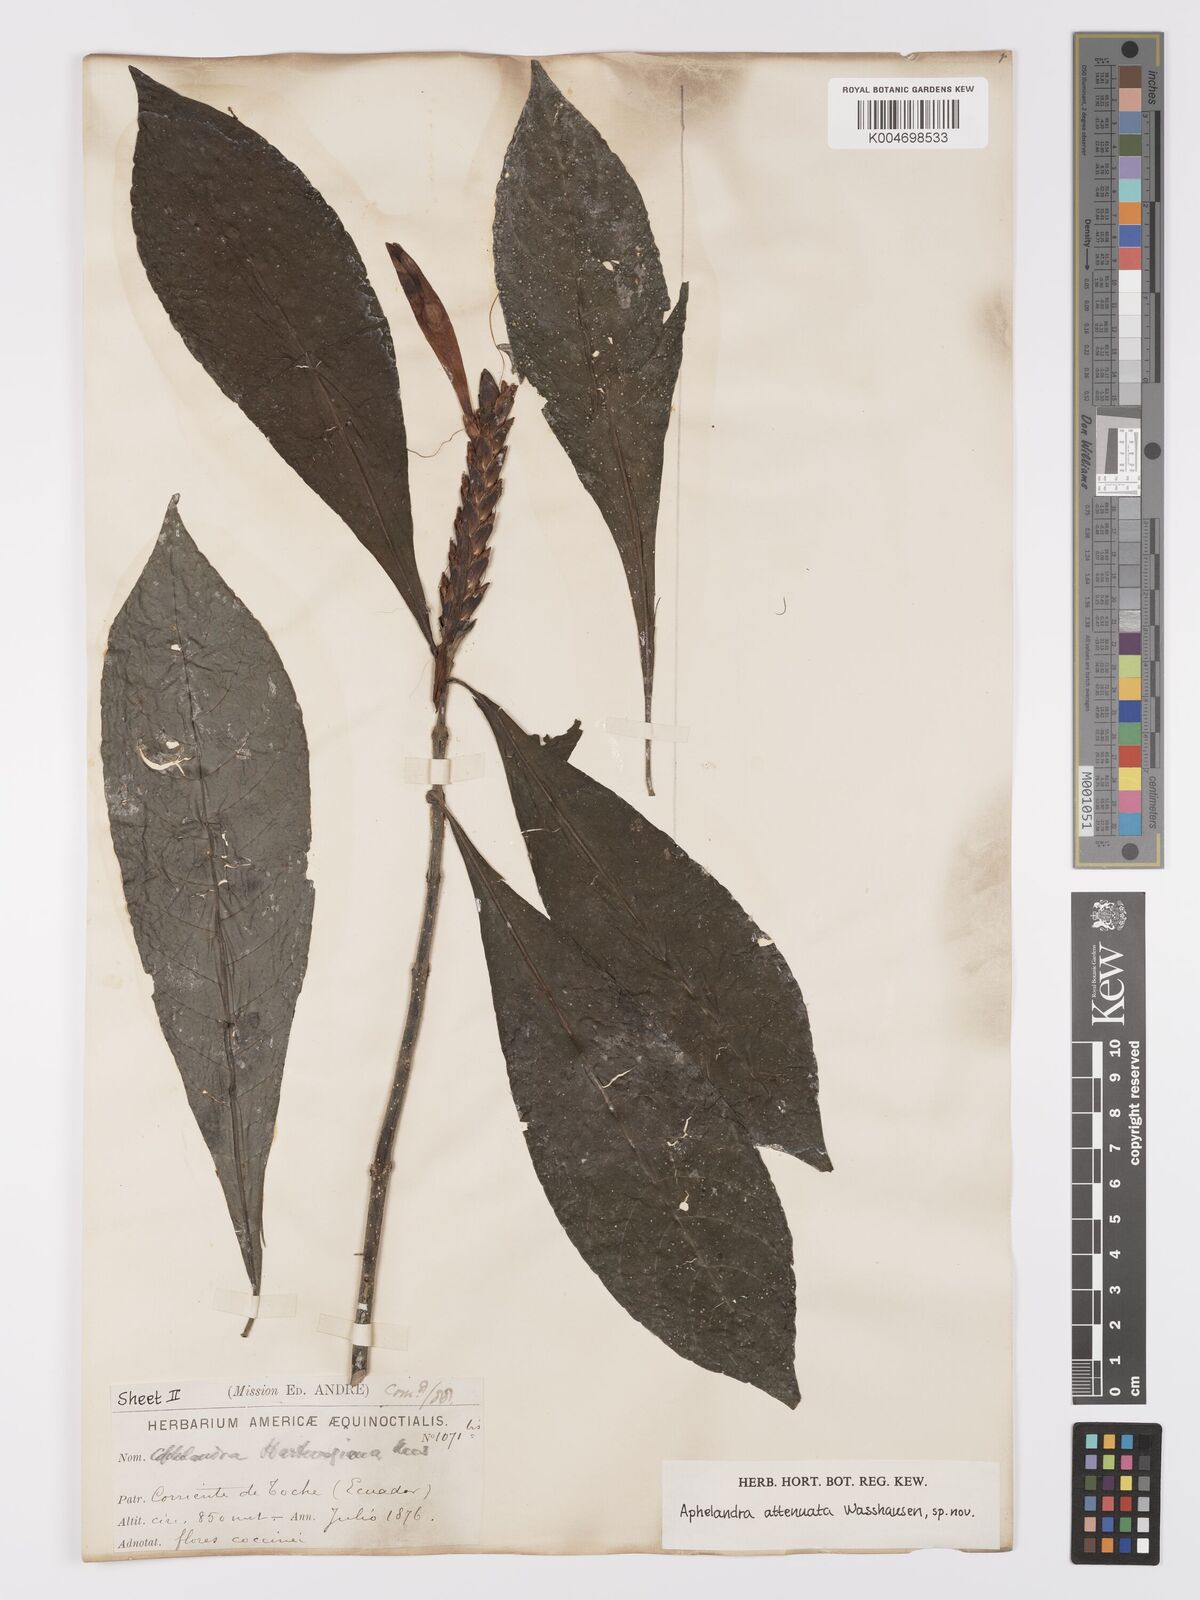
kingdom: Plantae
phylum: Tracheophyta
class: Magnoliopsida
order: Lamiales
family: Acanthaceae
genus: Aphelandra
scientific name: Aphelandra attenuata
